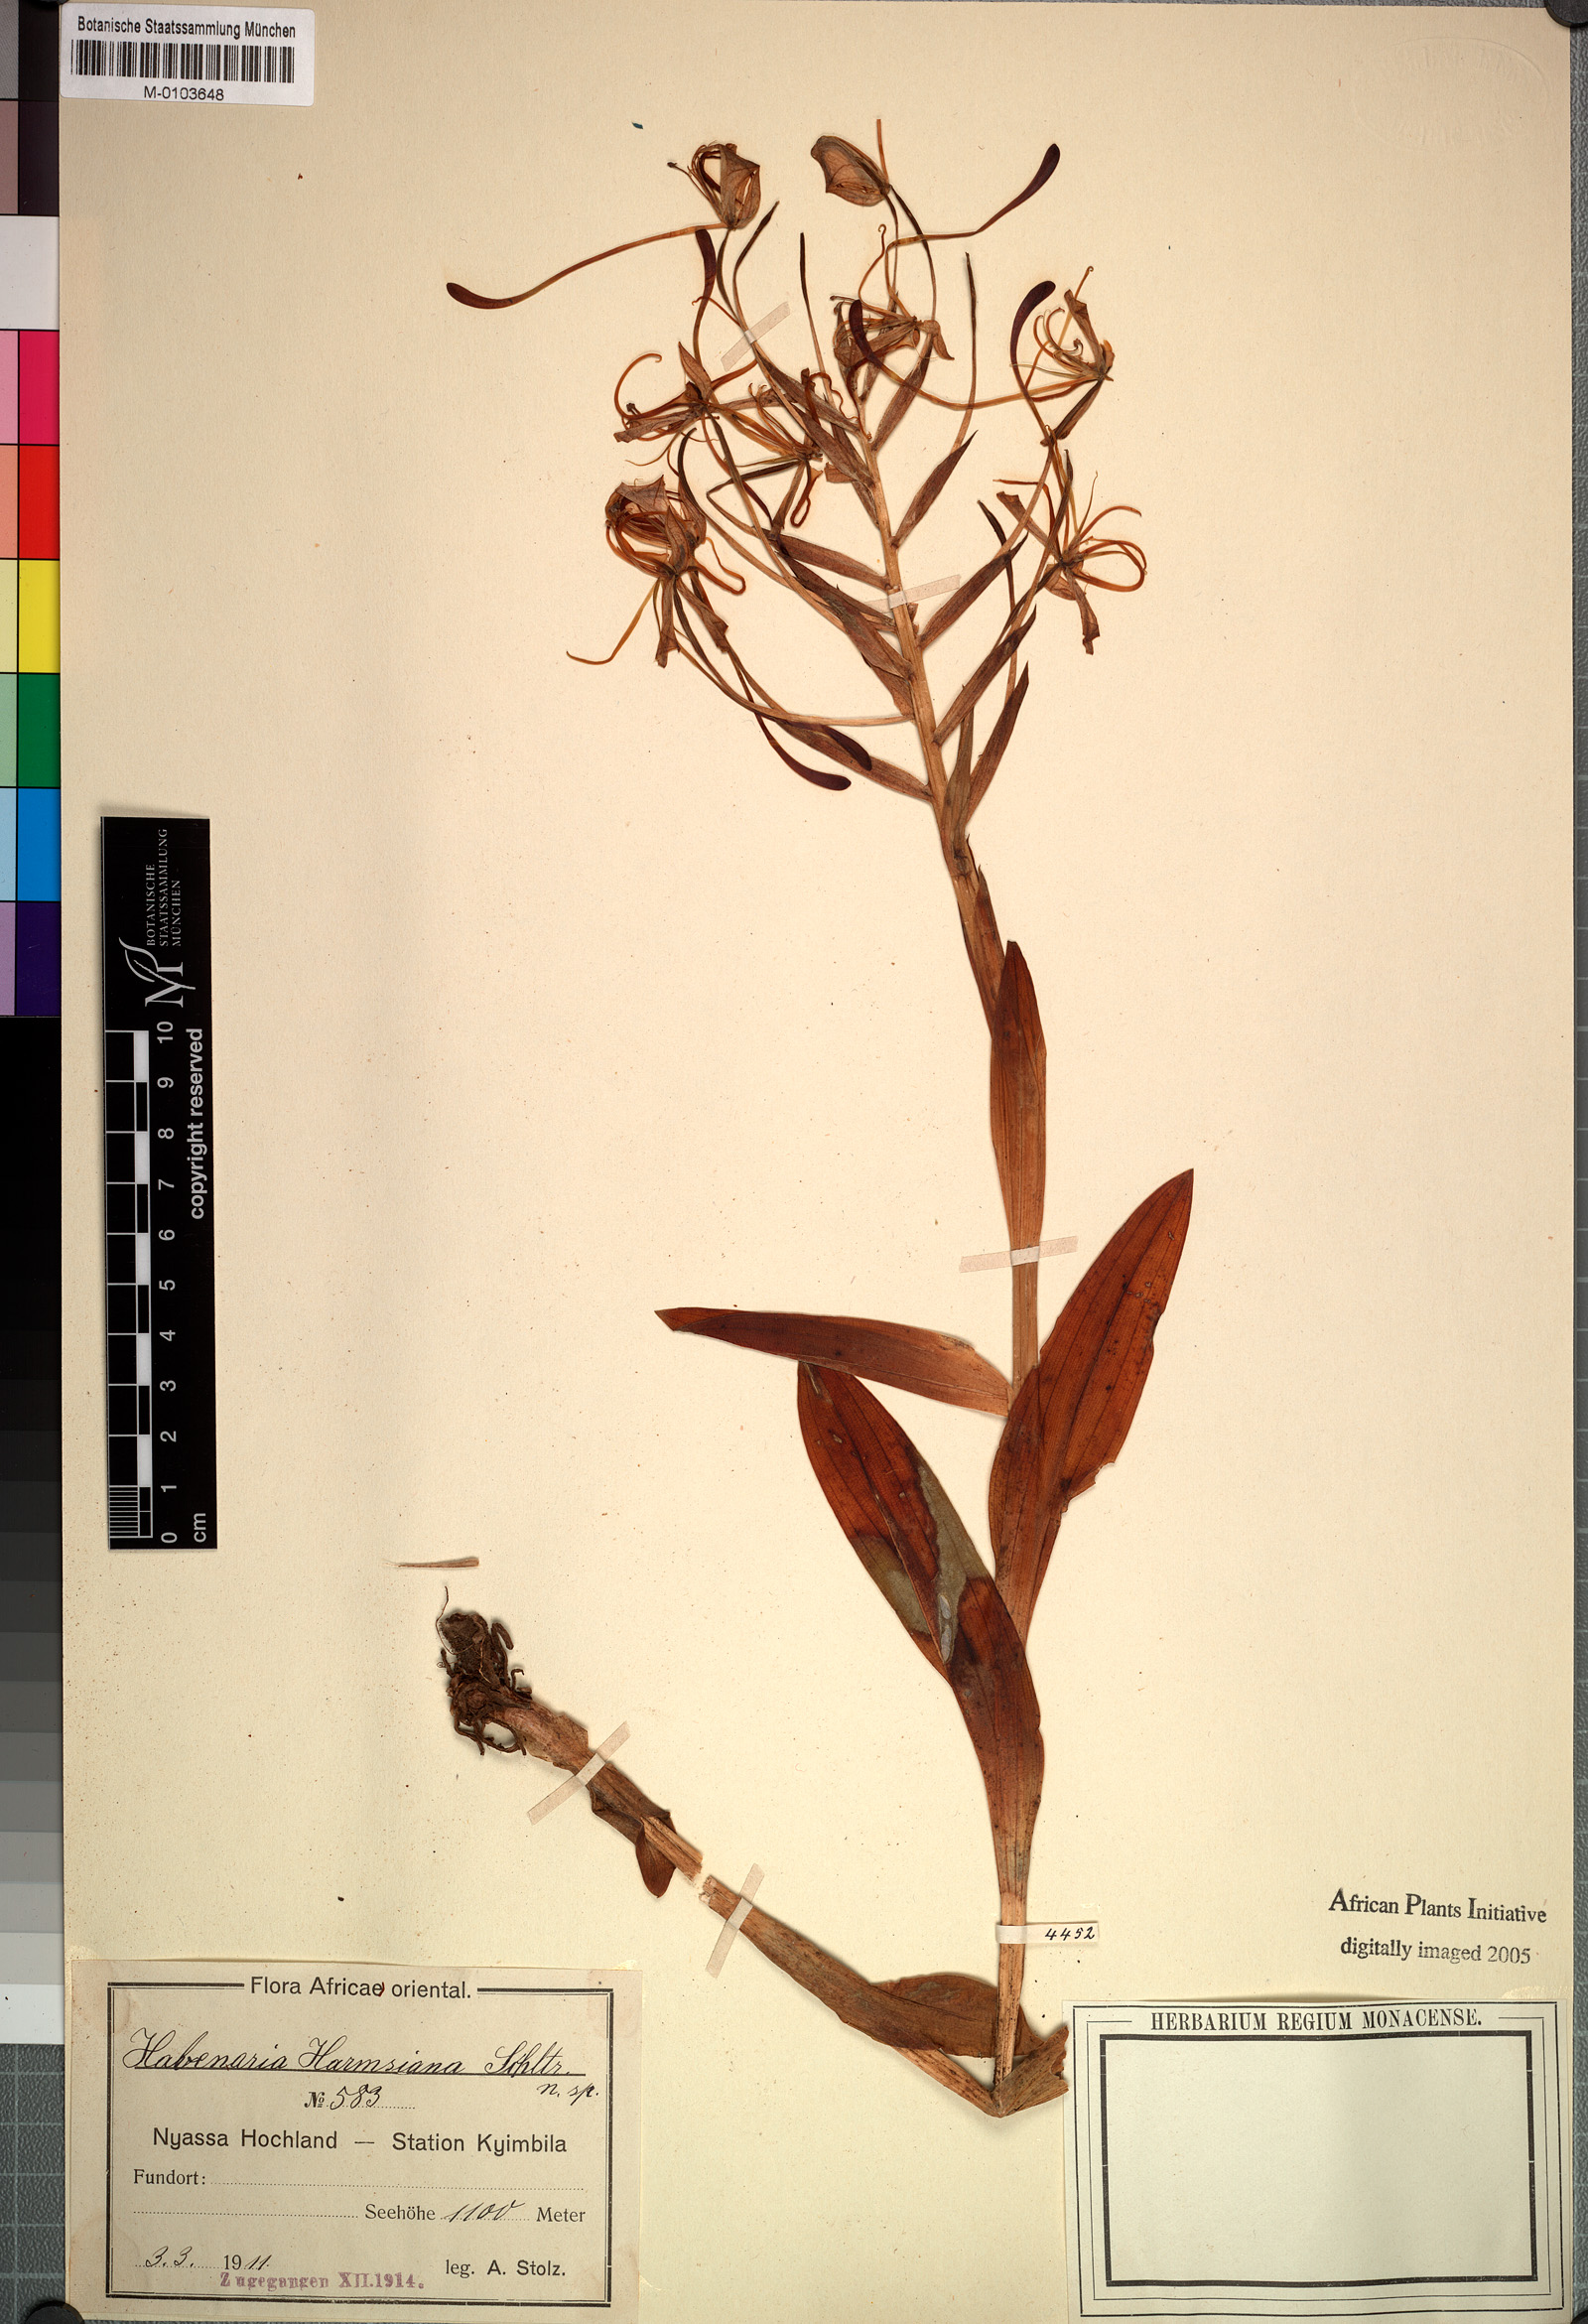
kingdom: Plantae
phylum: Tracheophyta
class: Liliopsida
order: Asparagales
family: Orchidaceae
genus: Habenaria
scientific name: Habenaria harmsiana
